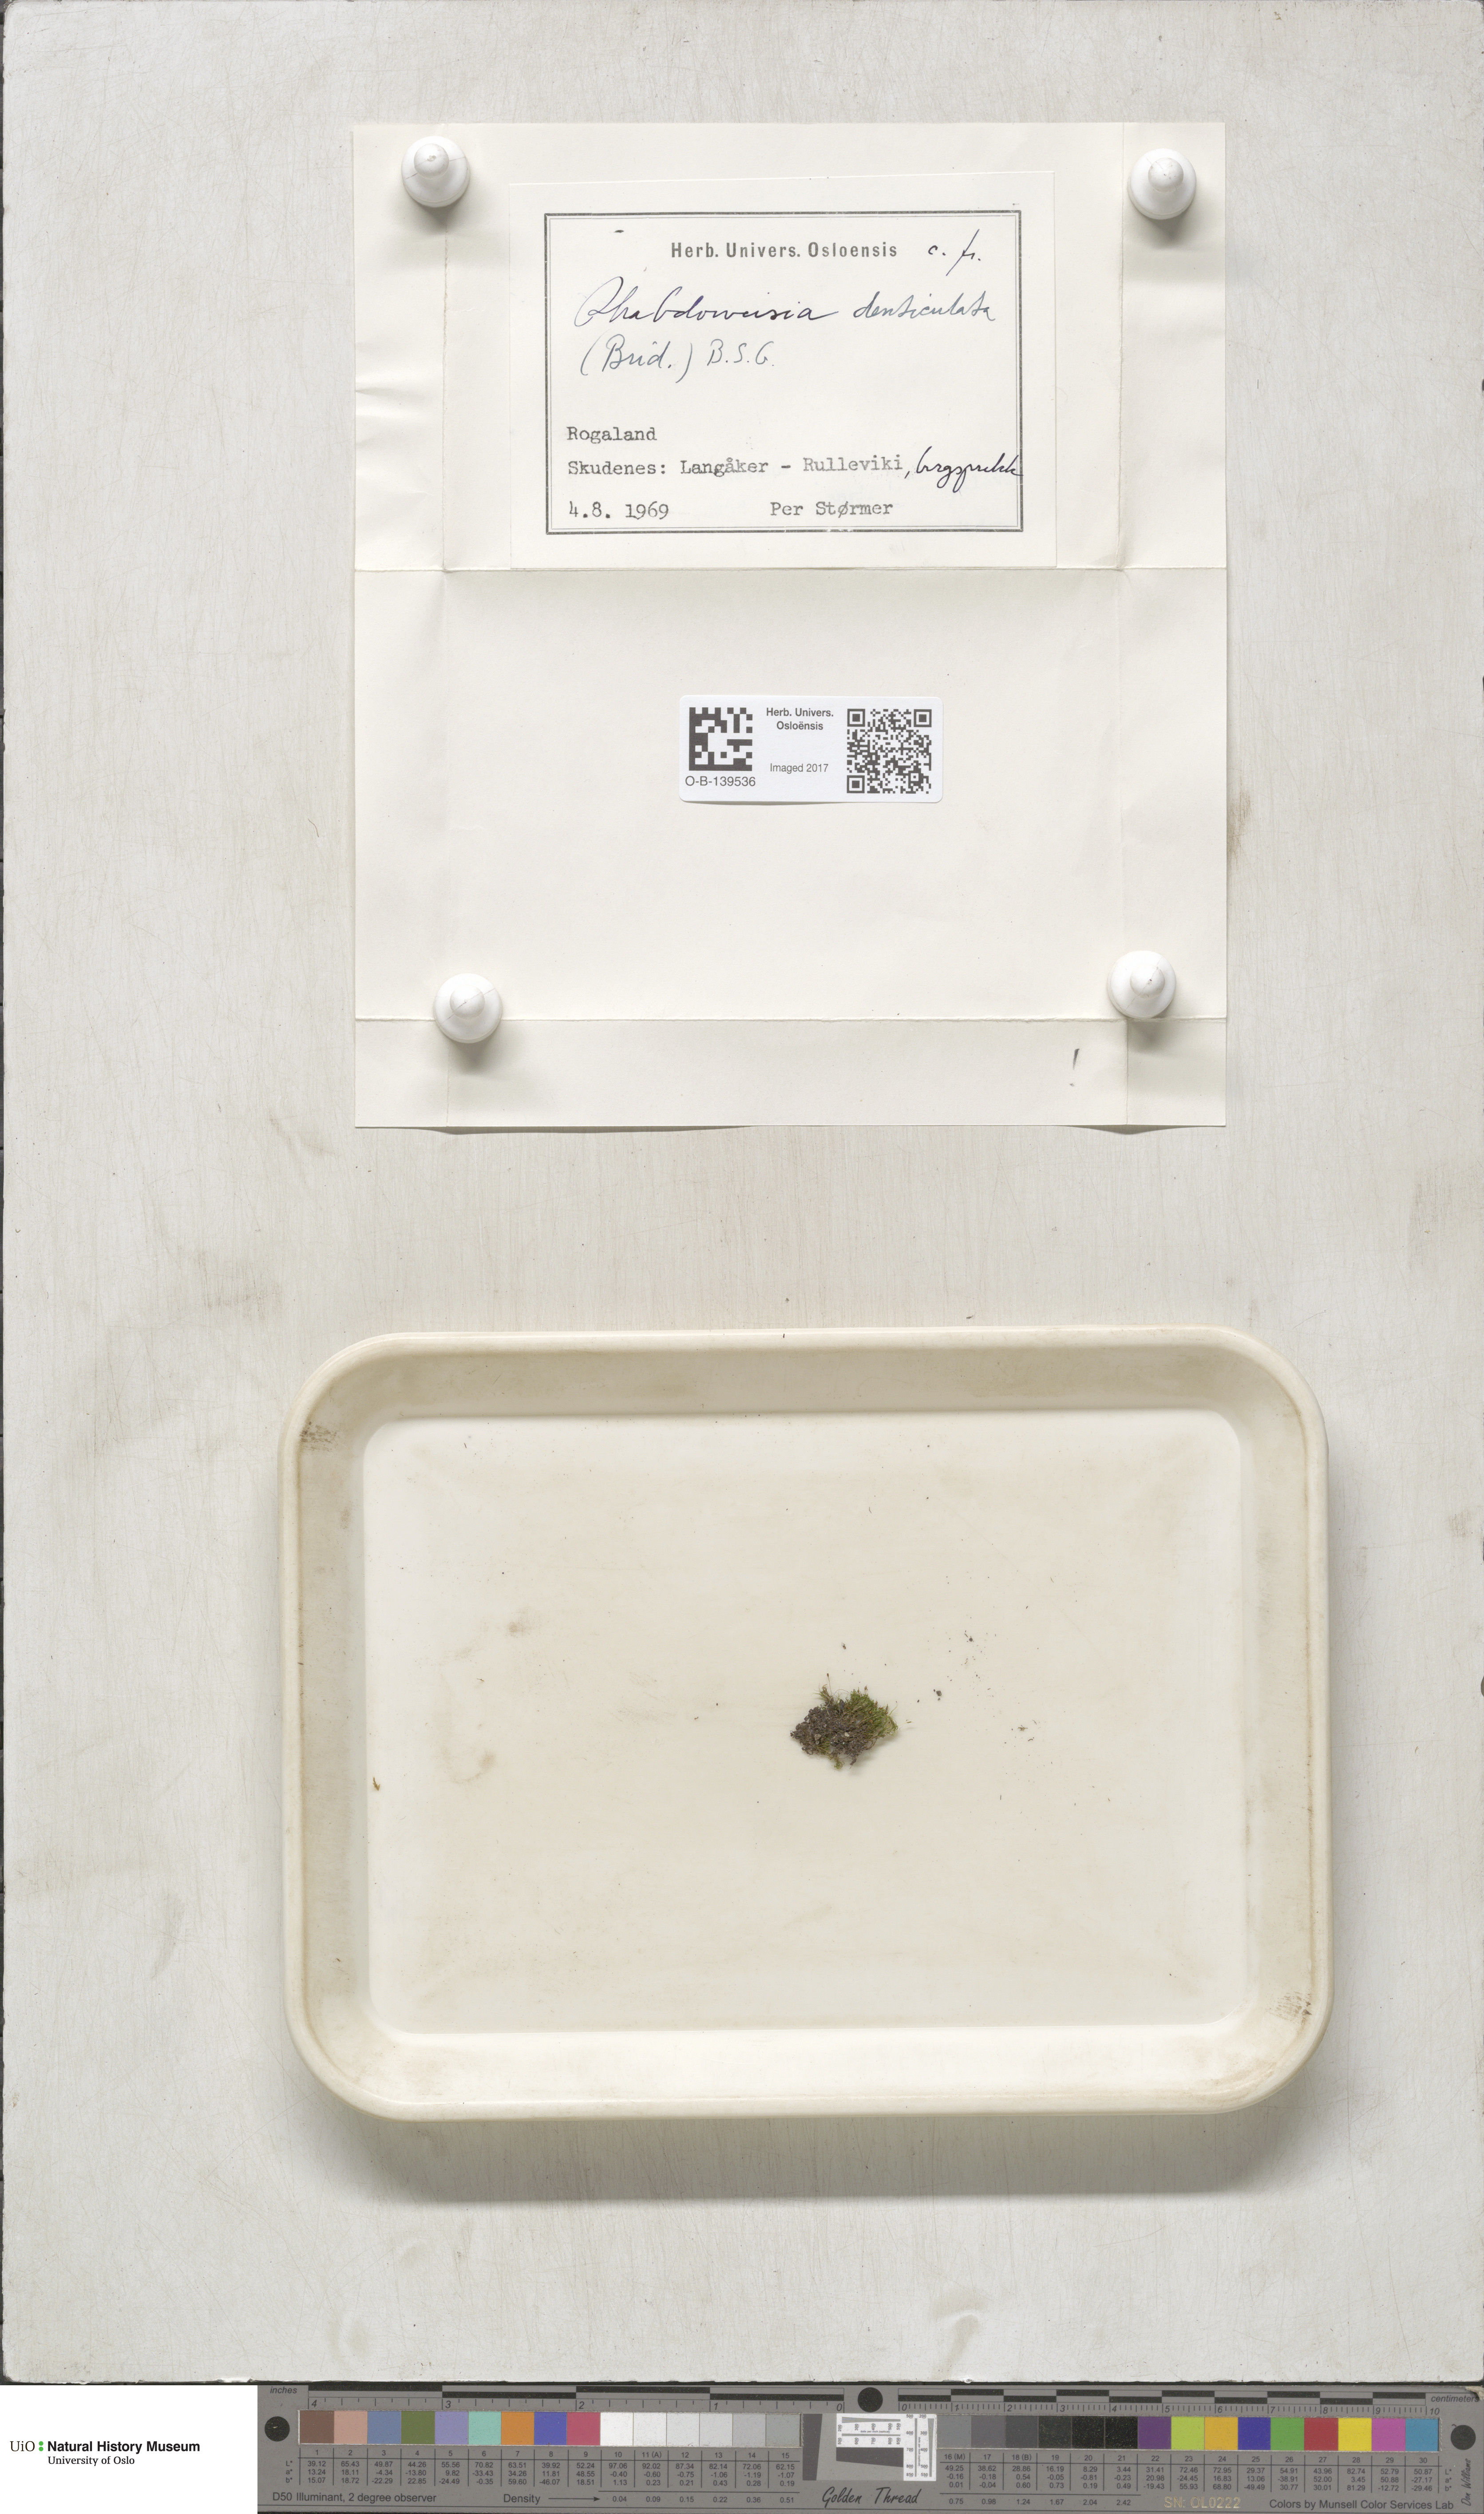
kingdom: Plantae
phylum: Bryophyta
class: Bryopsida
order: Dicranales
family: Rhabdoweisiaceae
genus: Rhabdoweisia
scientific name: Rhabdoweisia crispata
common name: Fine-toothed streak moss
